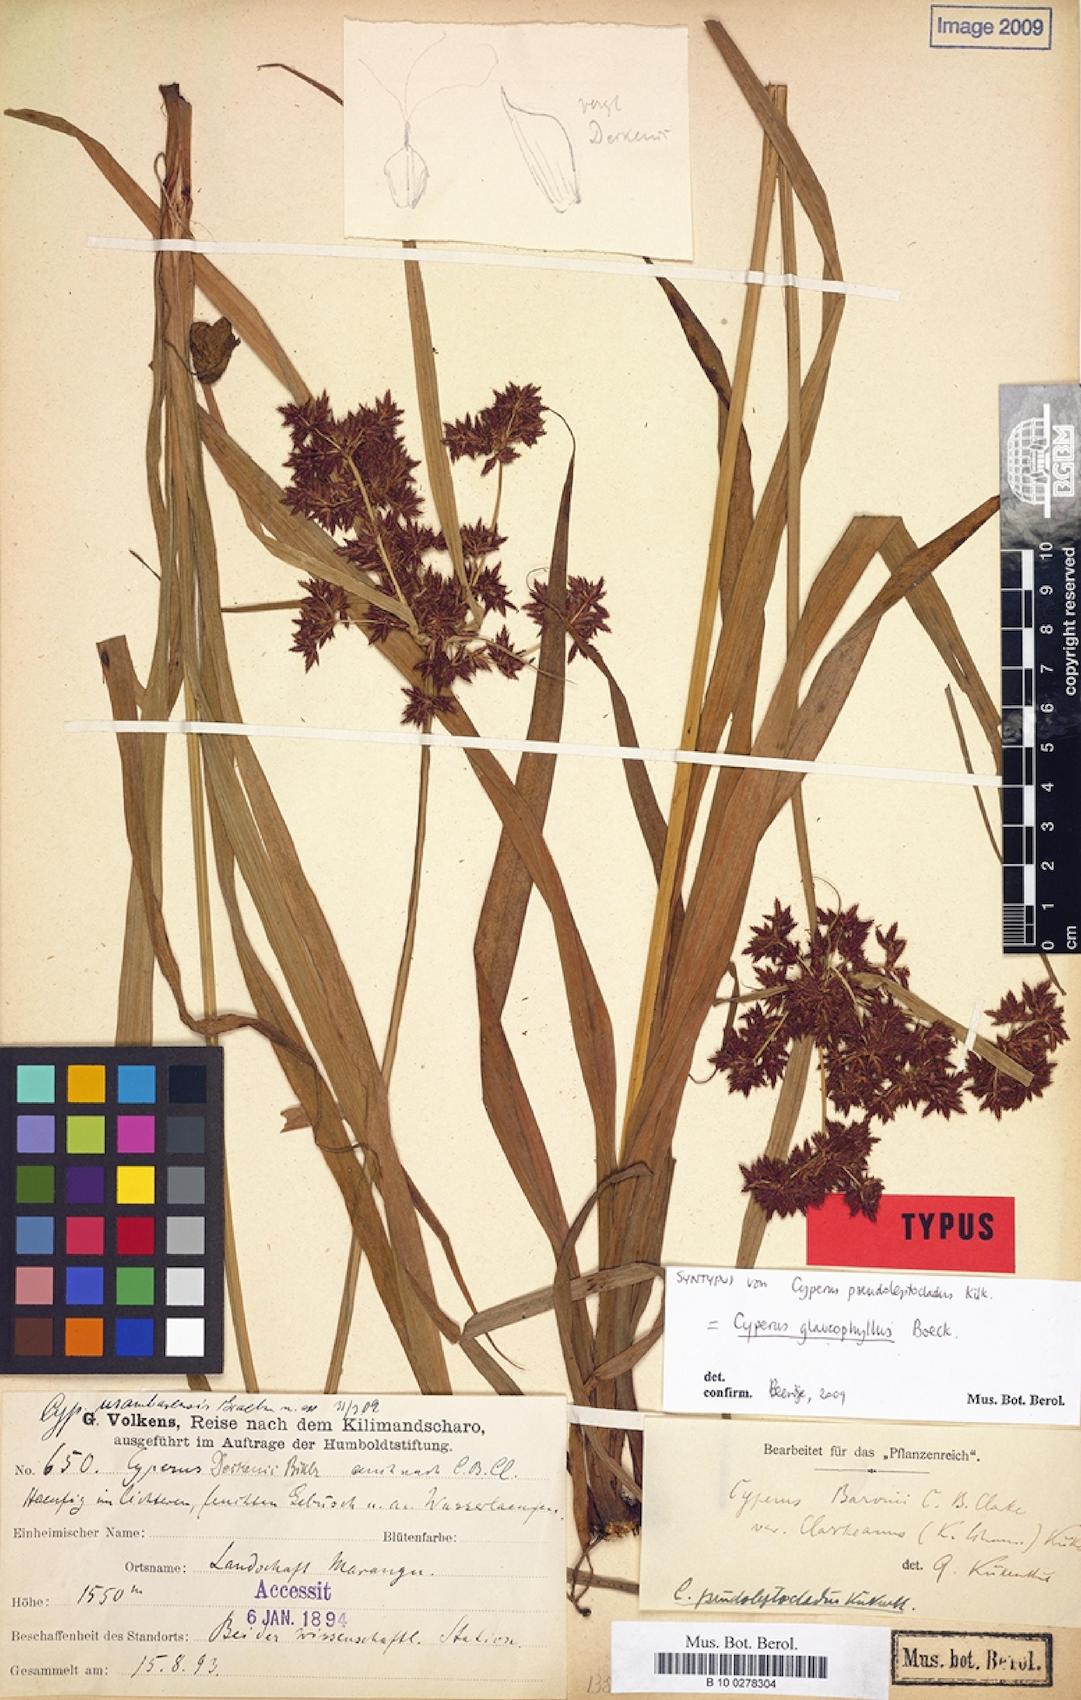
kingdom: Plantae
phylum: Tracheophyta
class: Liliopsida
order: Poales
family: Cyperaceae
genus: Cyperus
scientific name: Cyperus glaucophyllus
